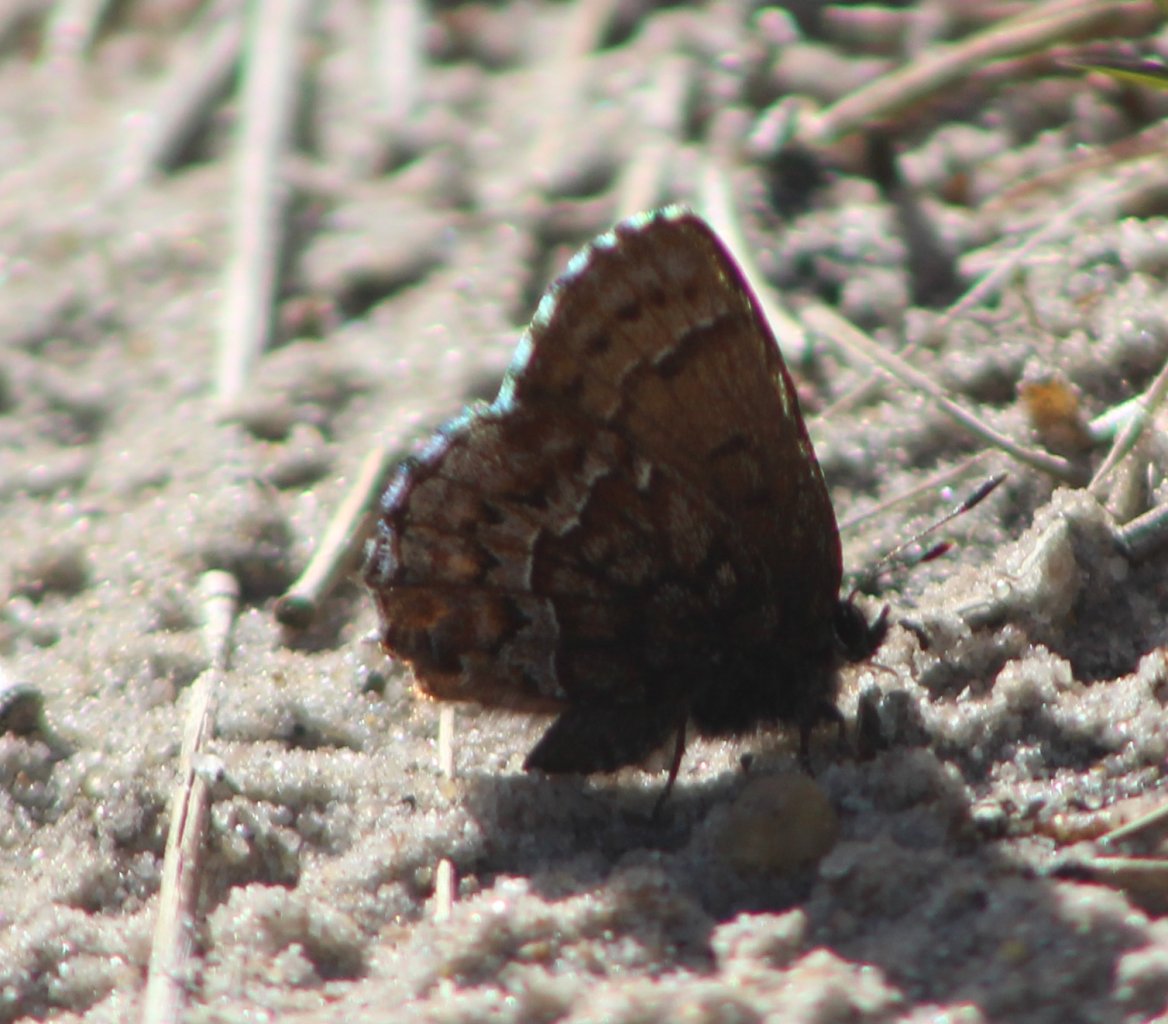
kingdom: Animalia
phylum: Arthropoda
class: Insecta
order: Lepidoptera
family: Lycaenidae
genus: Incisalia
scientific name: Incisalia eryphon
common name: Western Pine Elfin
